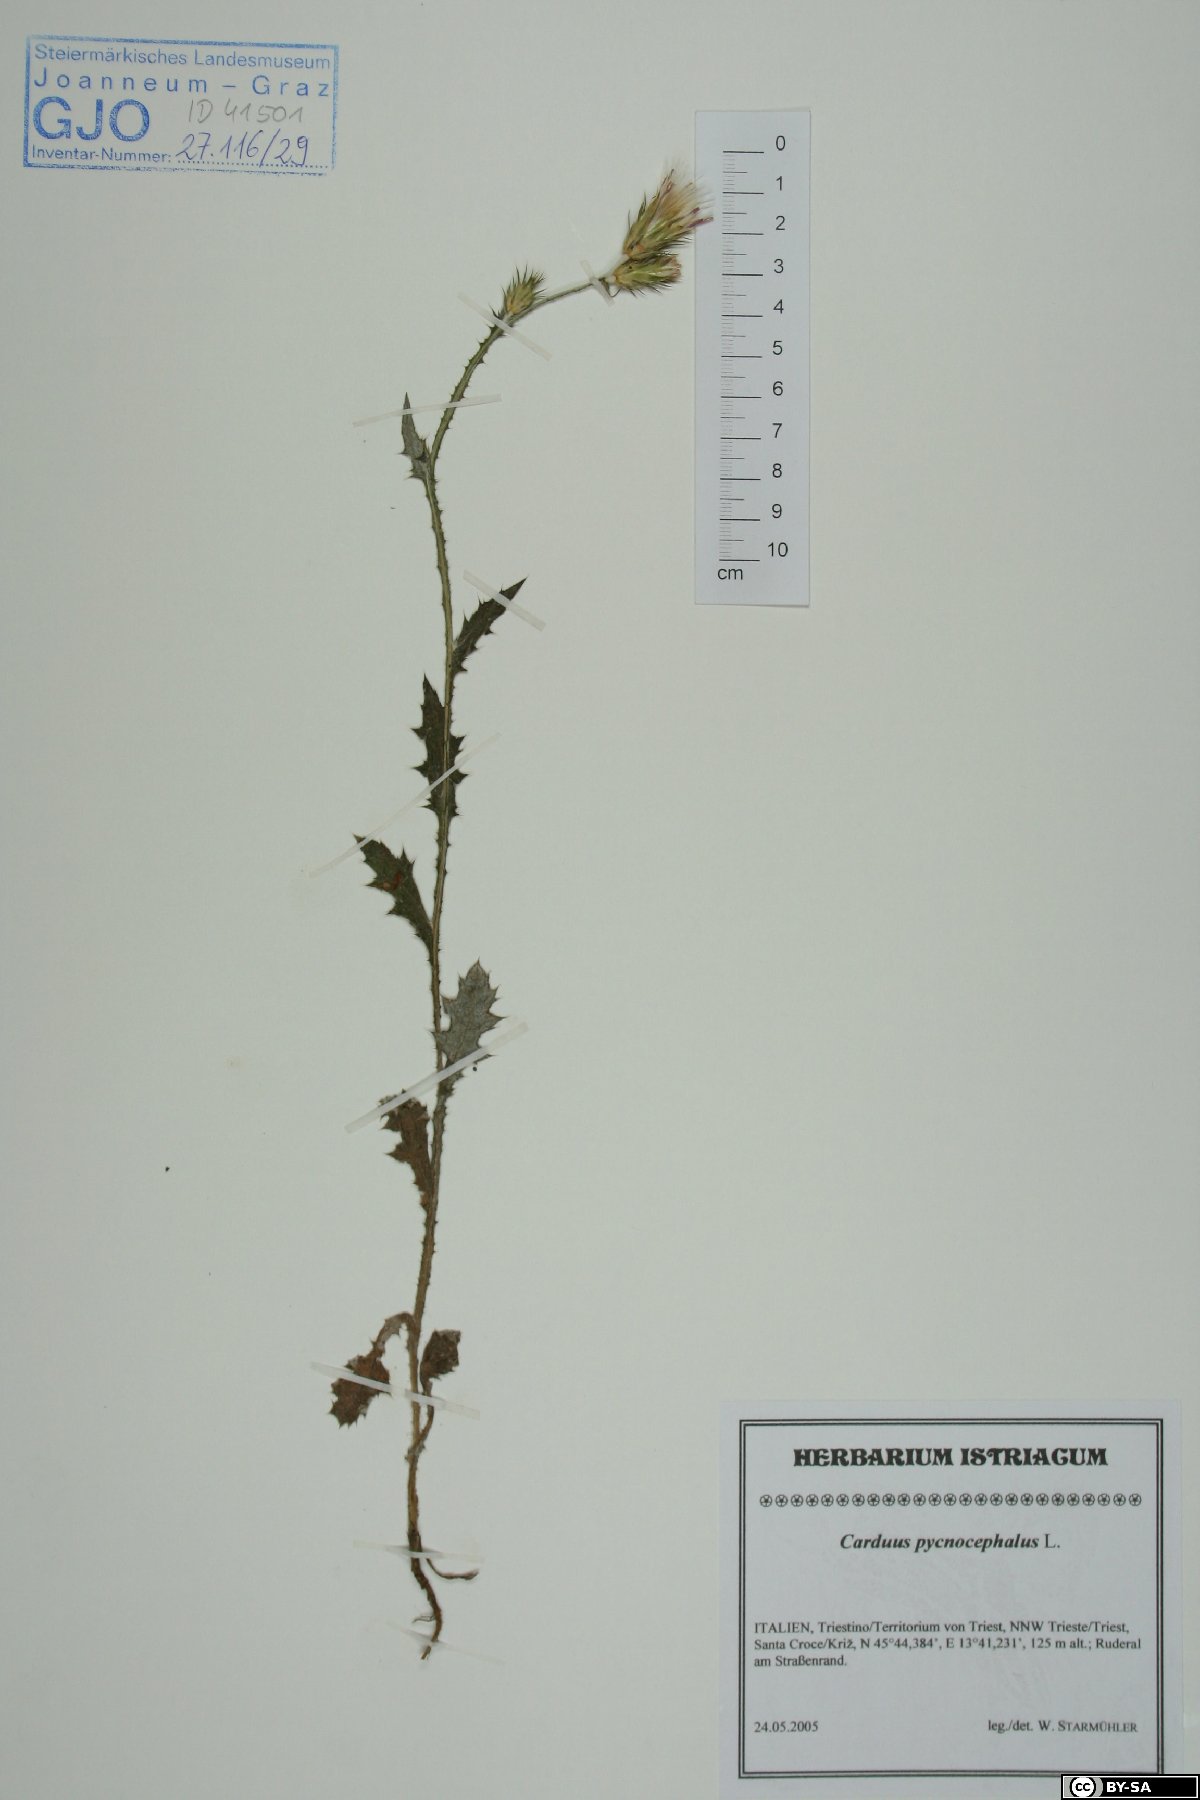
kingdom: Plantae
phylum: Tracheophyta
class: Magnoliopsida
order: Asterales
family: Asteraceae
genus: Carduus
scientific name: Carduus pycnocephalus
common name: Plymouth thistle
